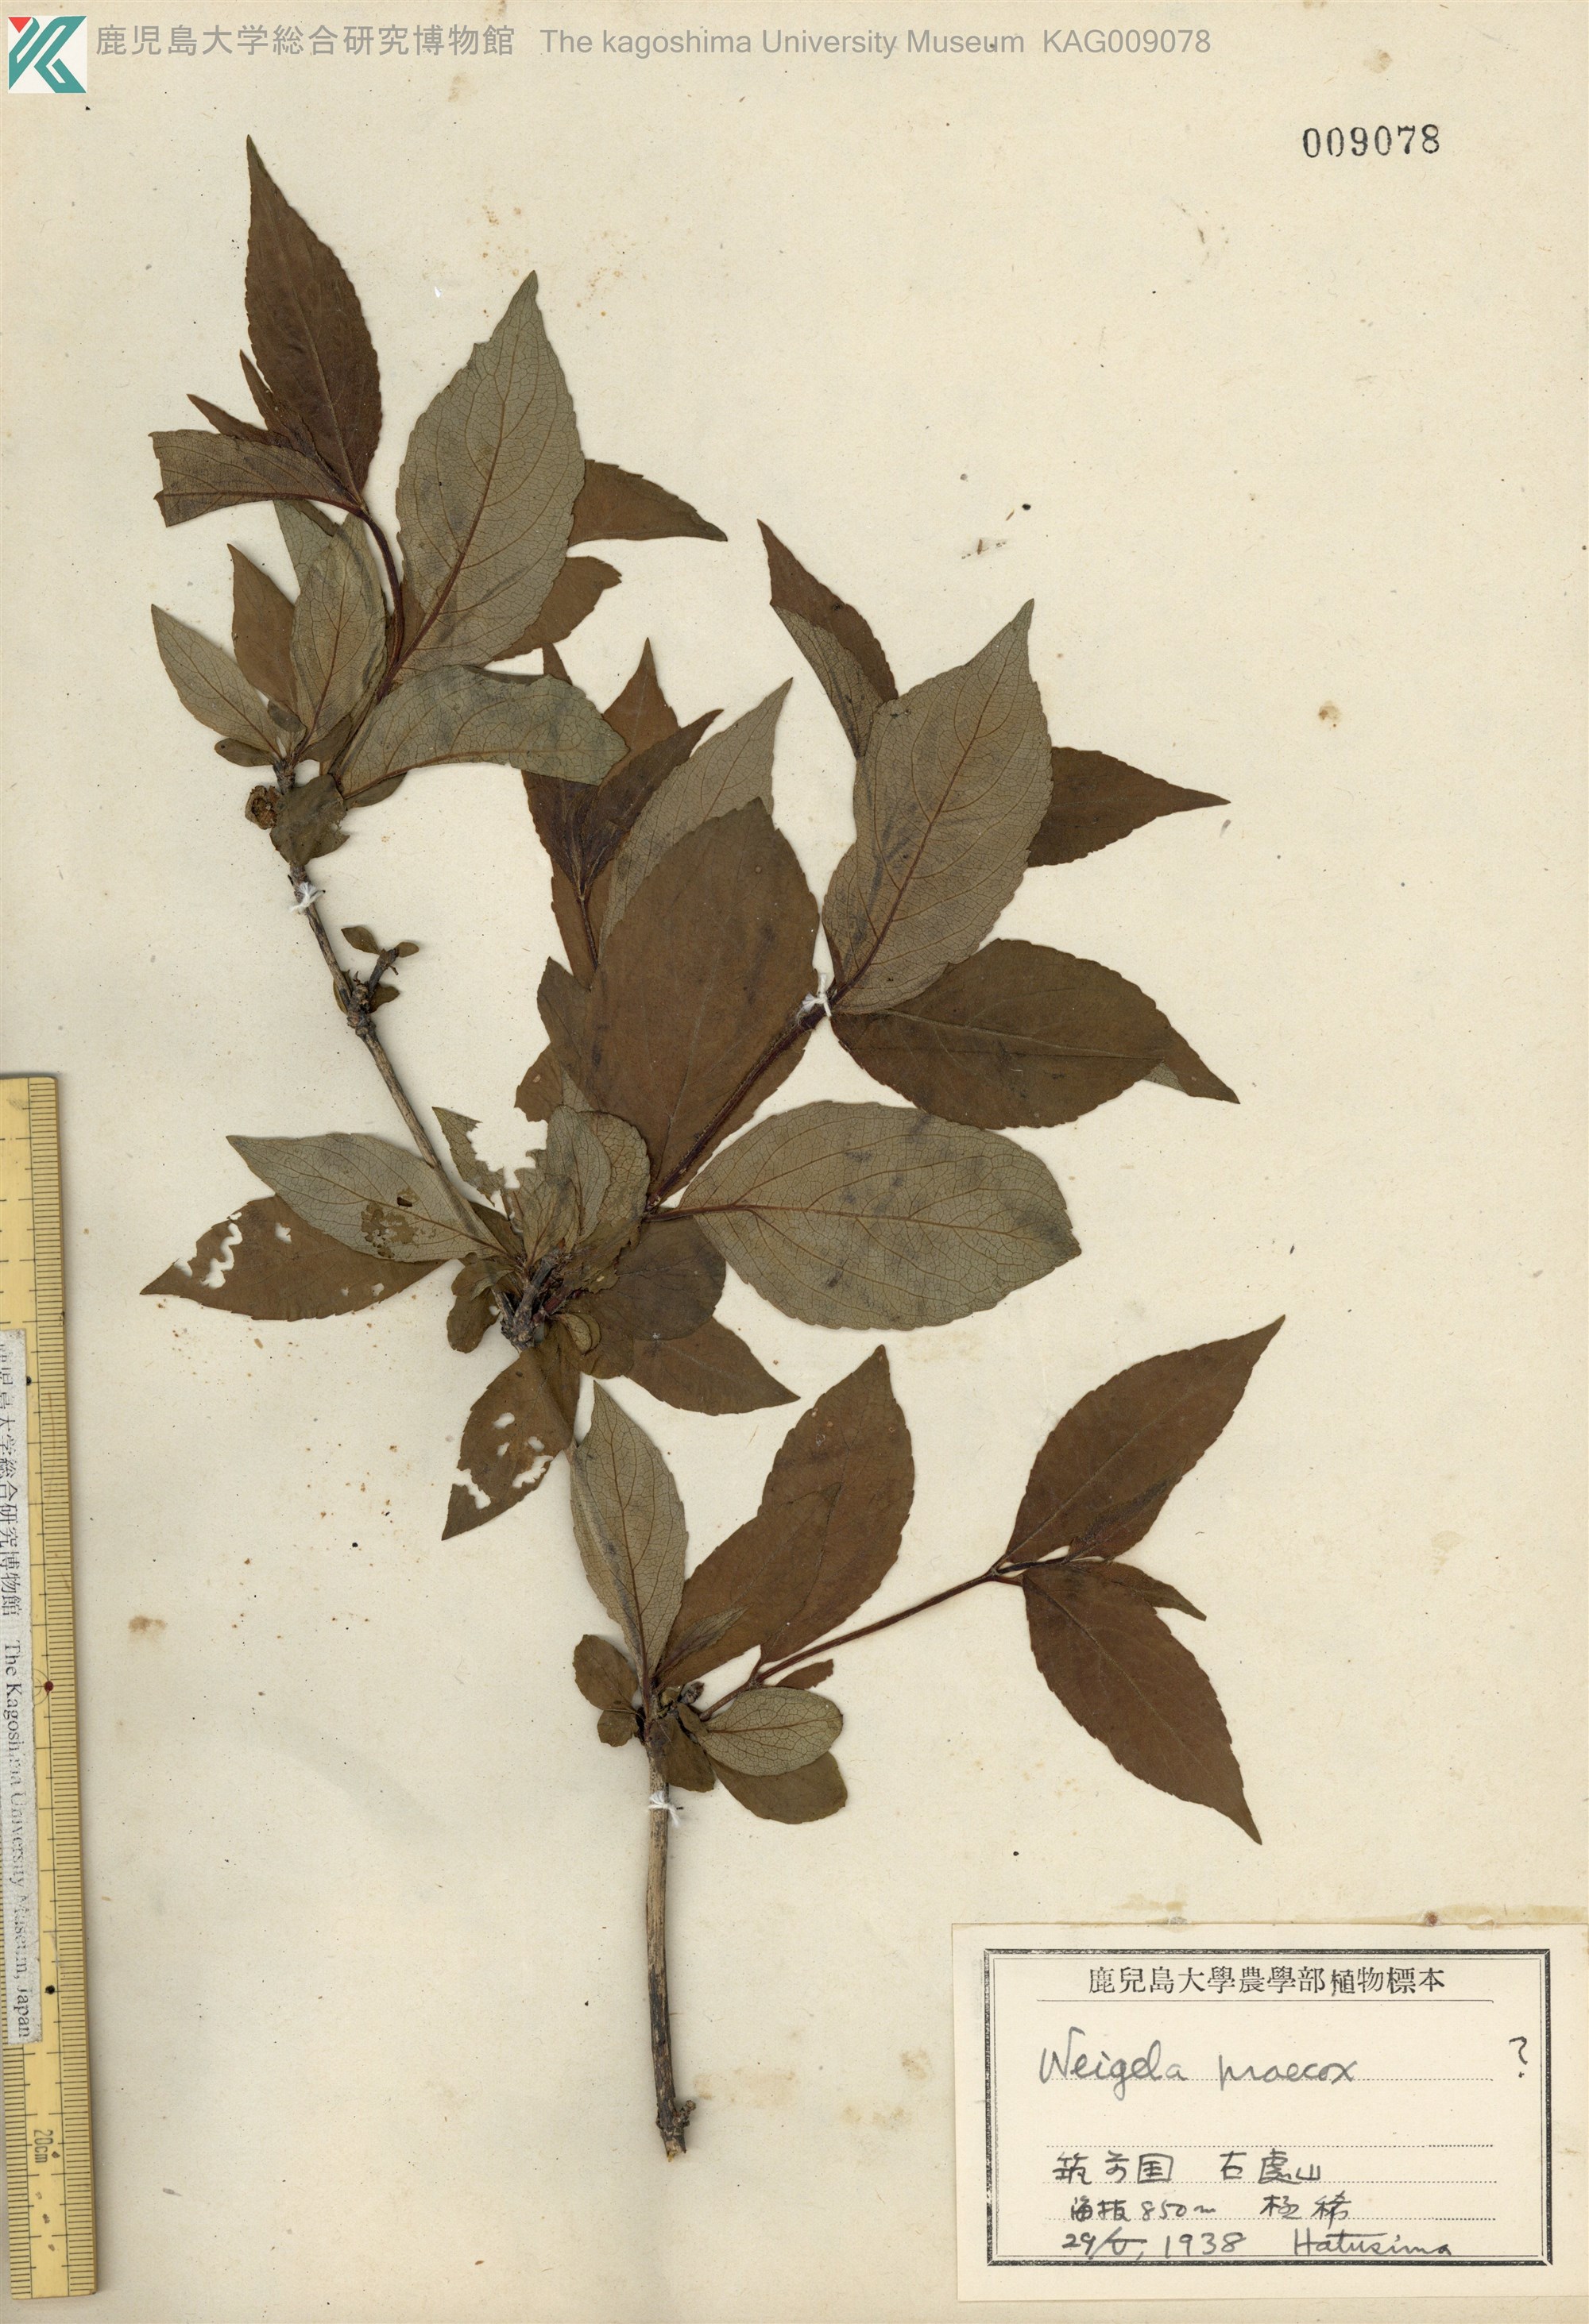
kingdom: Plantae
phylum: Tracheophyta
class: Magnoliopsida
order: Dipsacales
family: Caprifoliaceae
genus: Weigela
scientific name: Weigela florida
